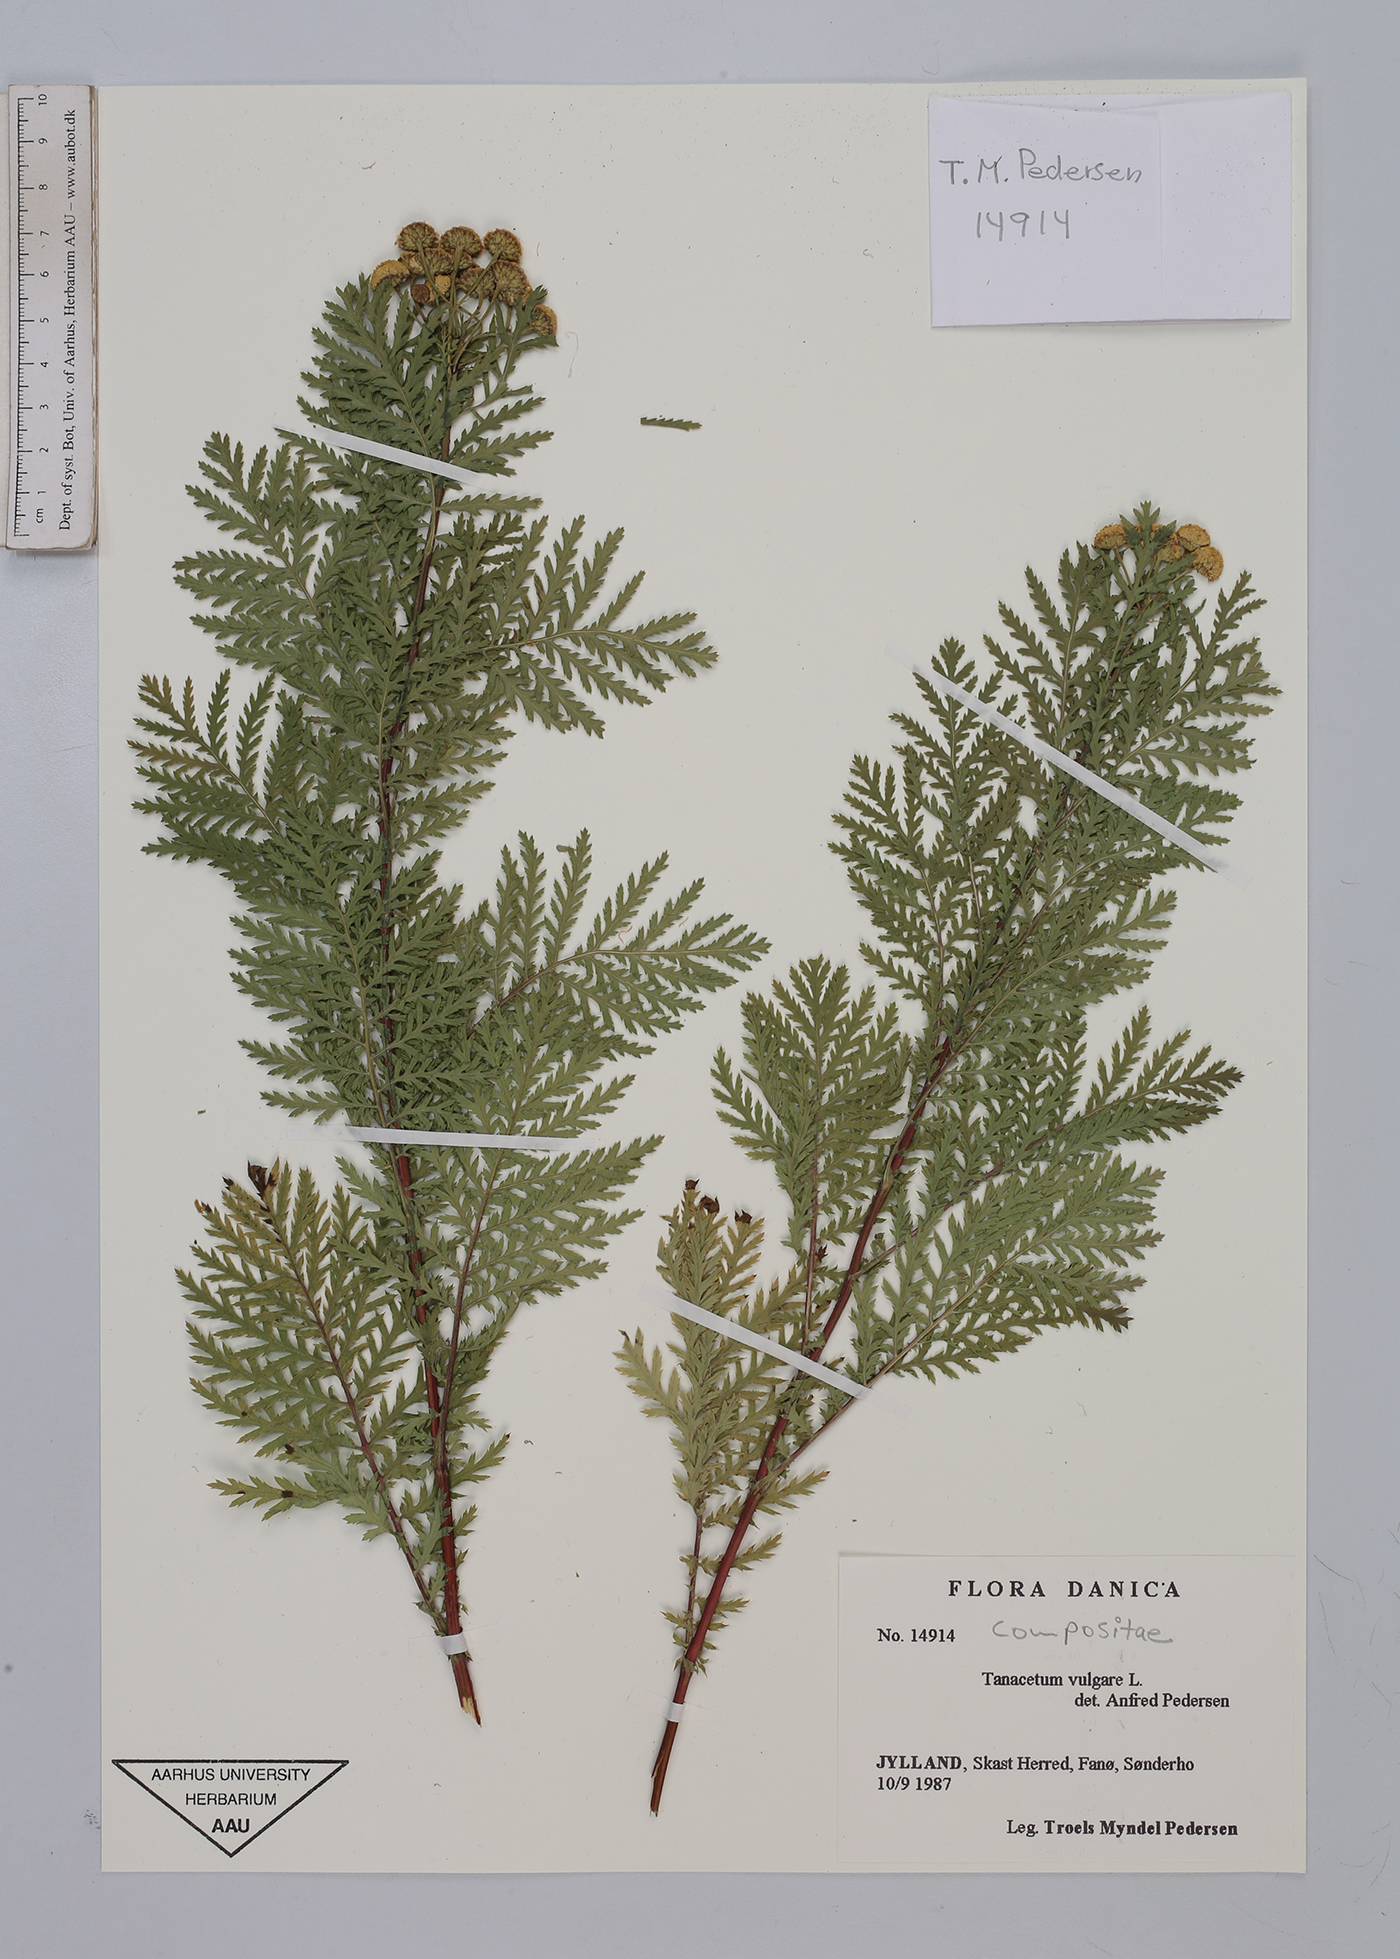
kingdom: Plantae
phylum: Tracheophyta
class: Magnoliopsida
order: Asterales
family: Asteraceae
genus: Tanacetum
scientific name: Tanacetum vulgare
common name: Common tansy
